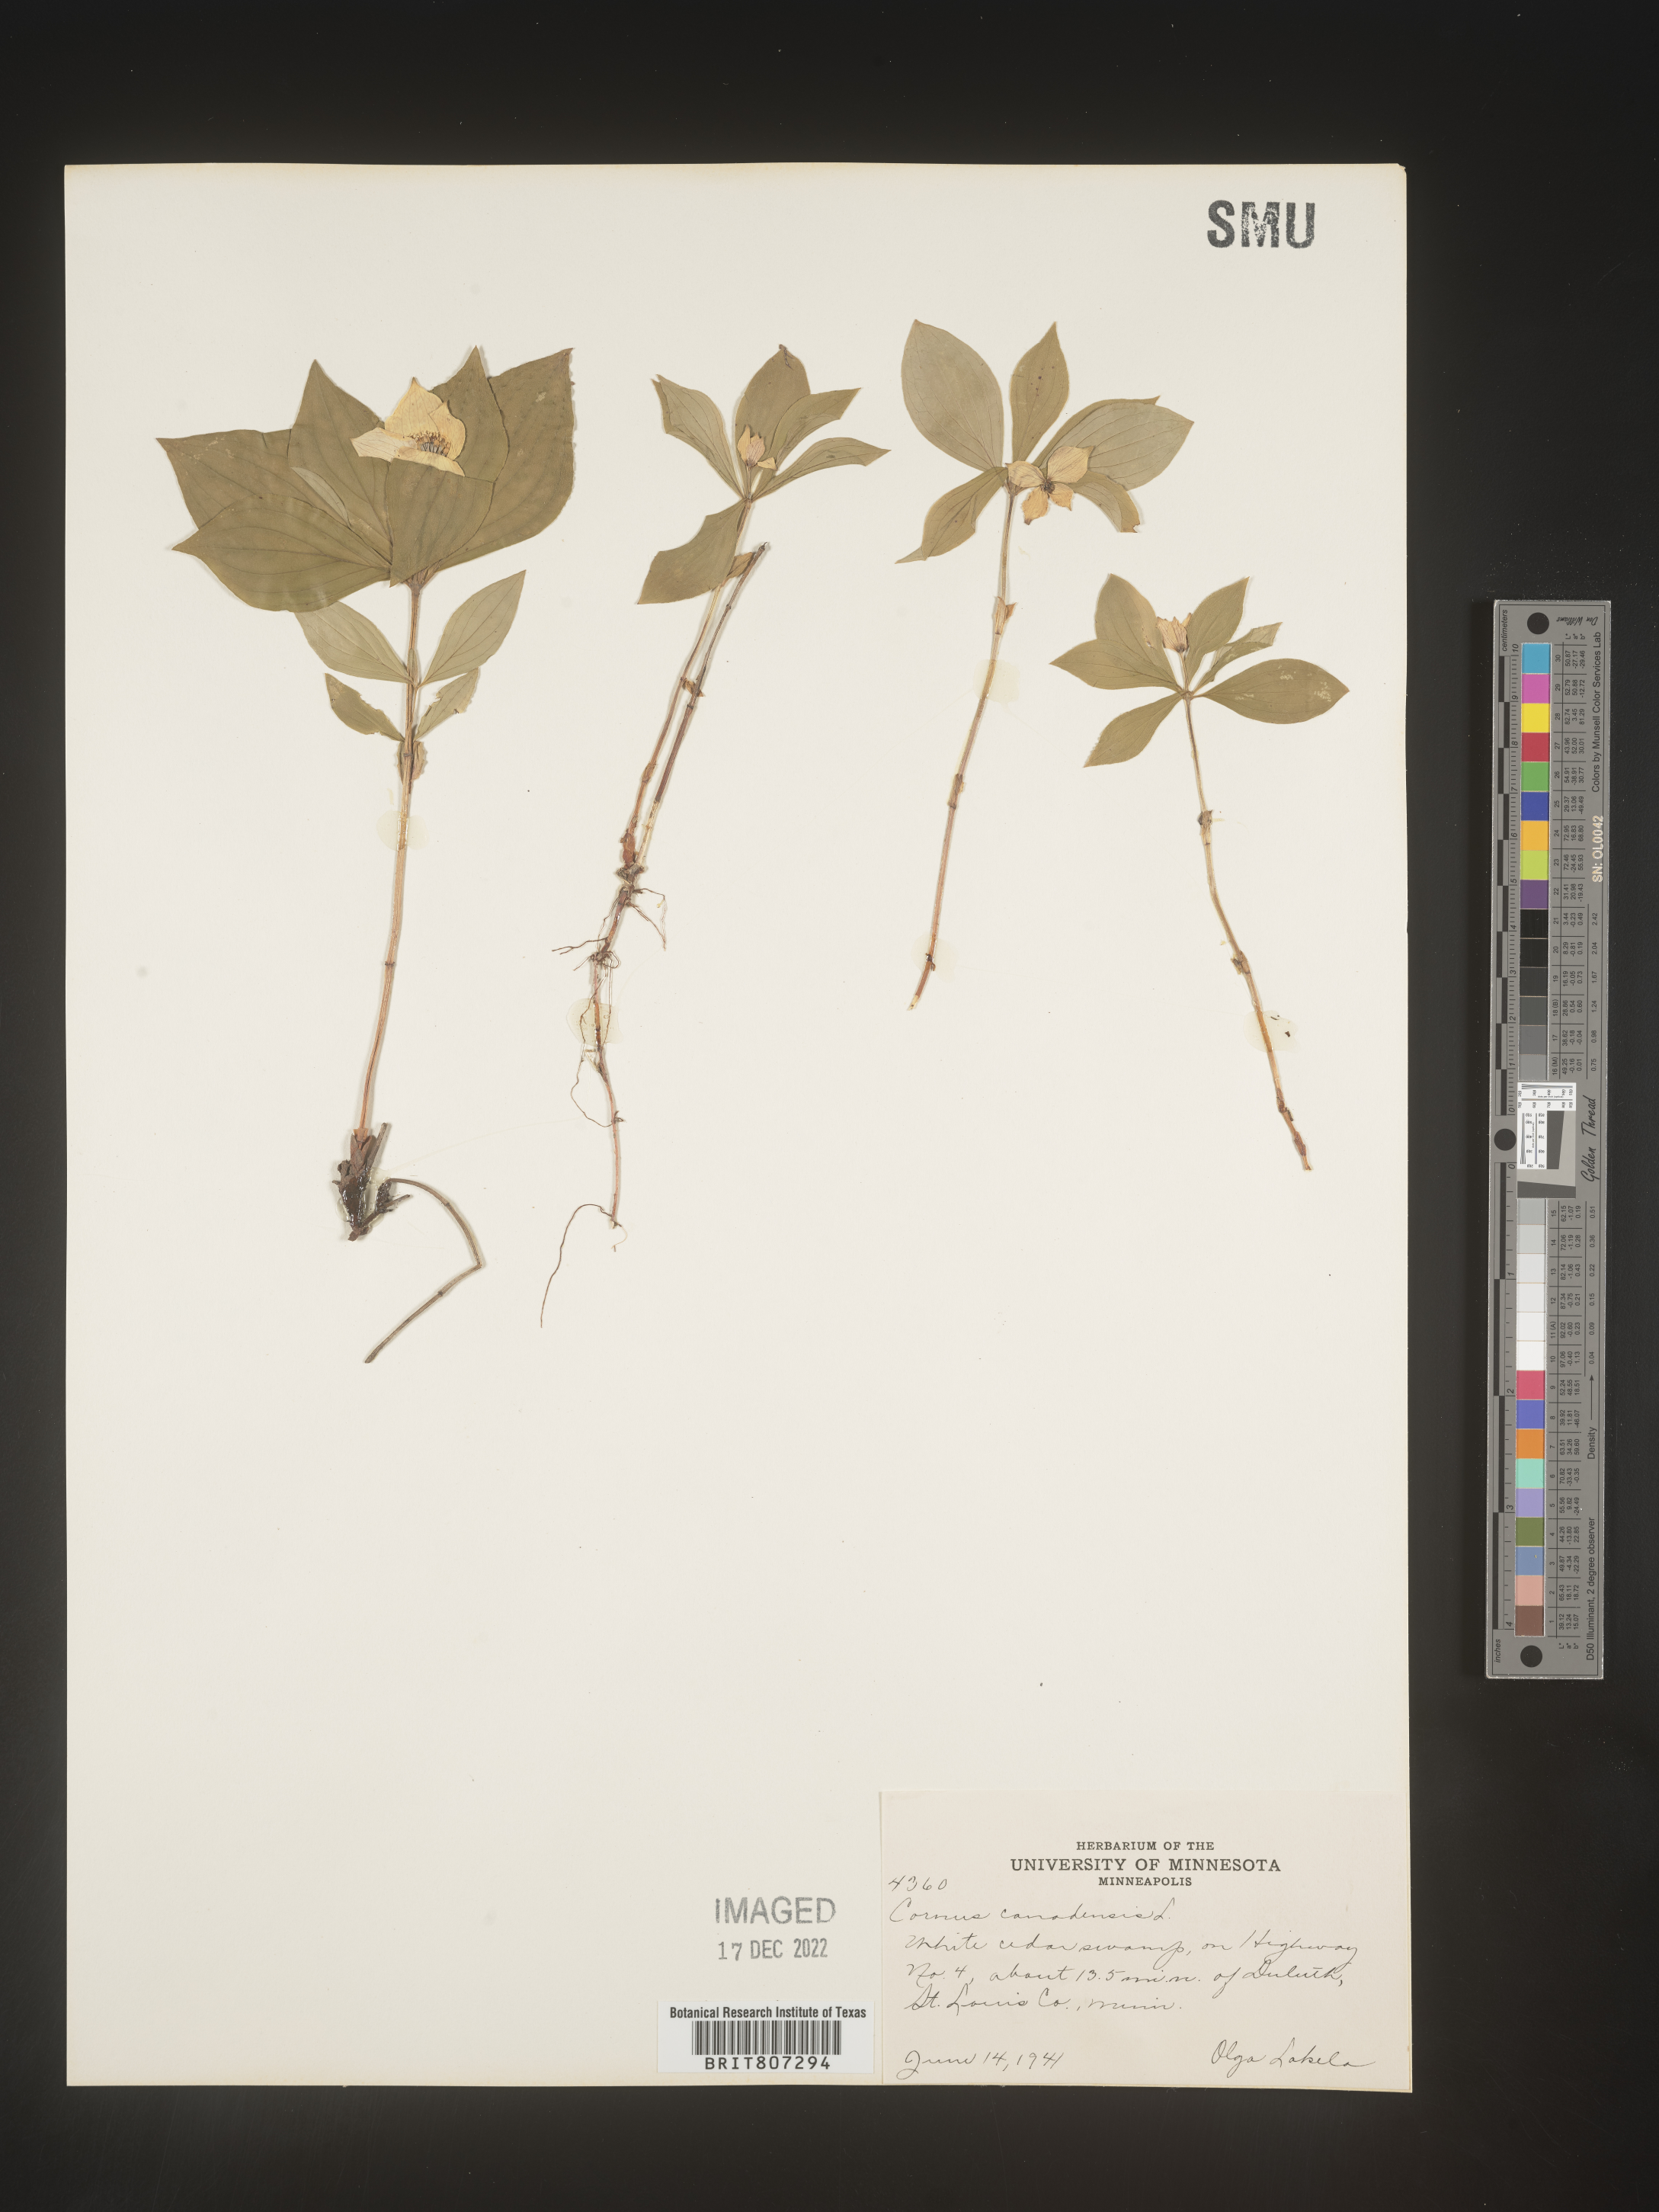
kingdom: Plantae
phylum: Tracheophyta
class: Magnoliopsida
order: Cornales
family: Cornaceae
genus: Cornus
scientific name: Cornus canadensis
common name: Creeping dogwood
